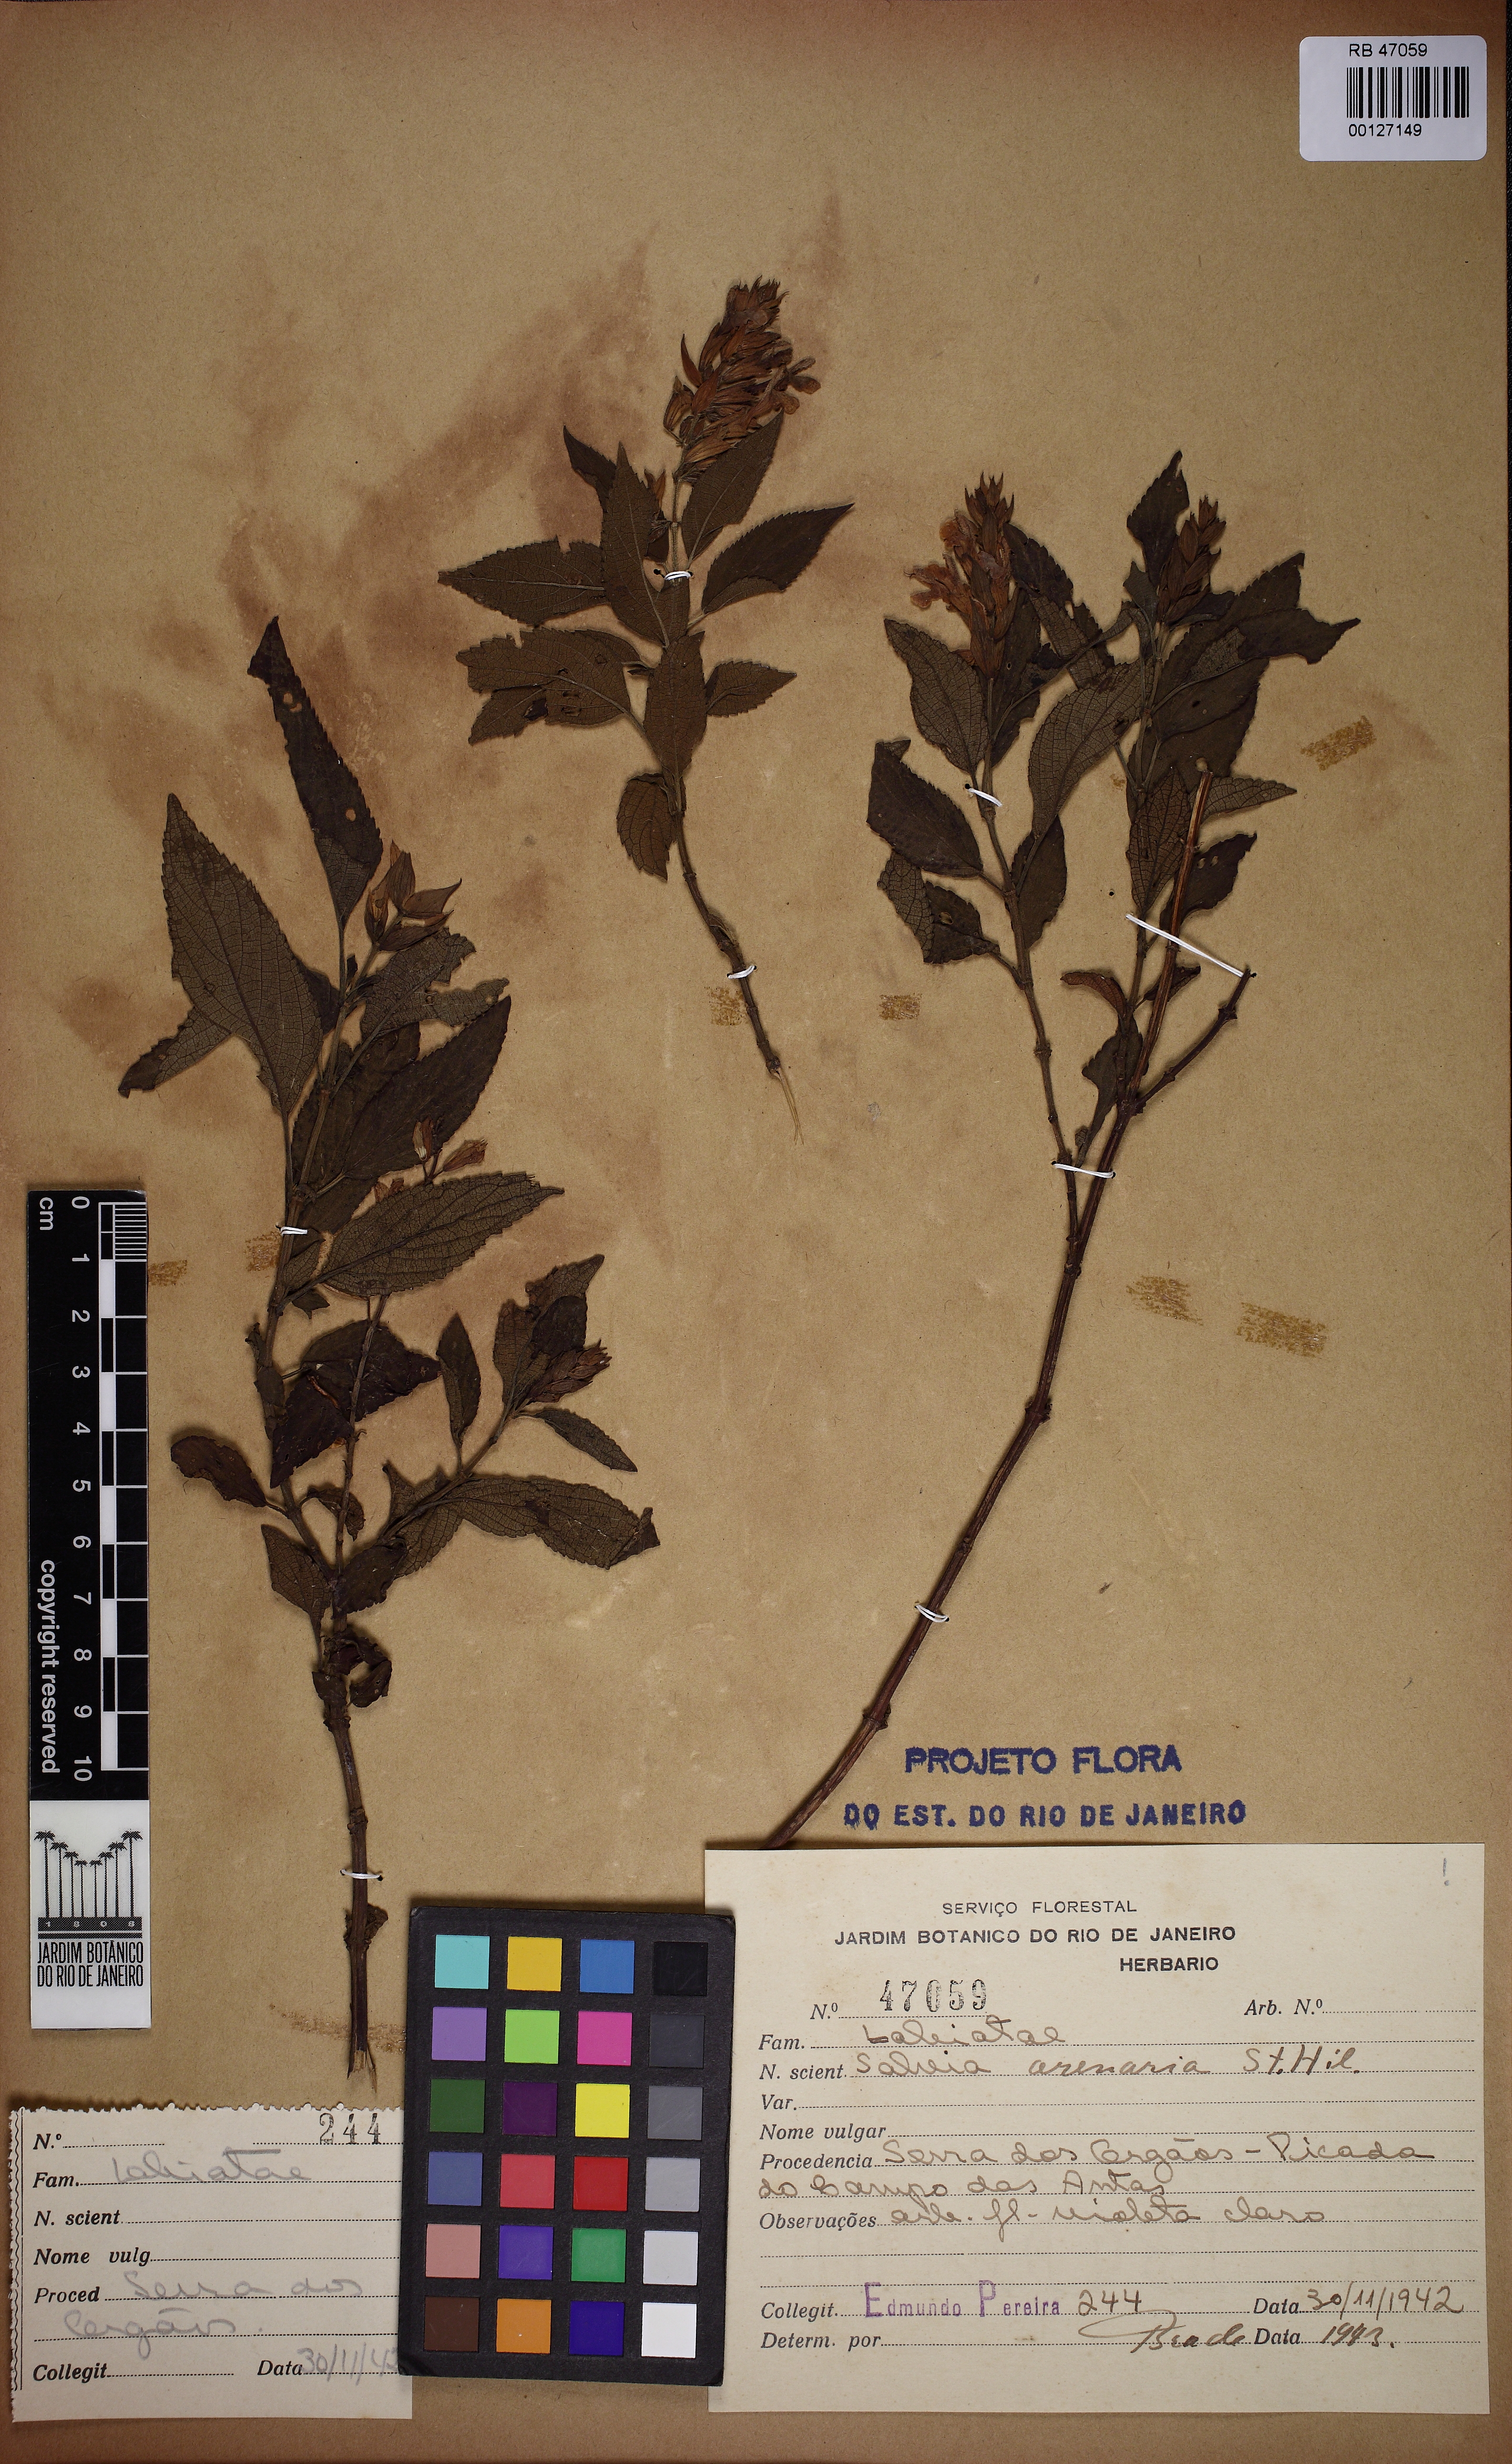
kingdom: Plantae
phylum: Tracheophyta
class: Magnoliopsida
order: Lamiales
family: Lamiaceae
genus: Salvia
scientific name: Salvia arenaria
